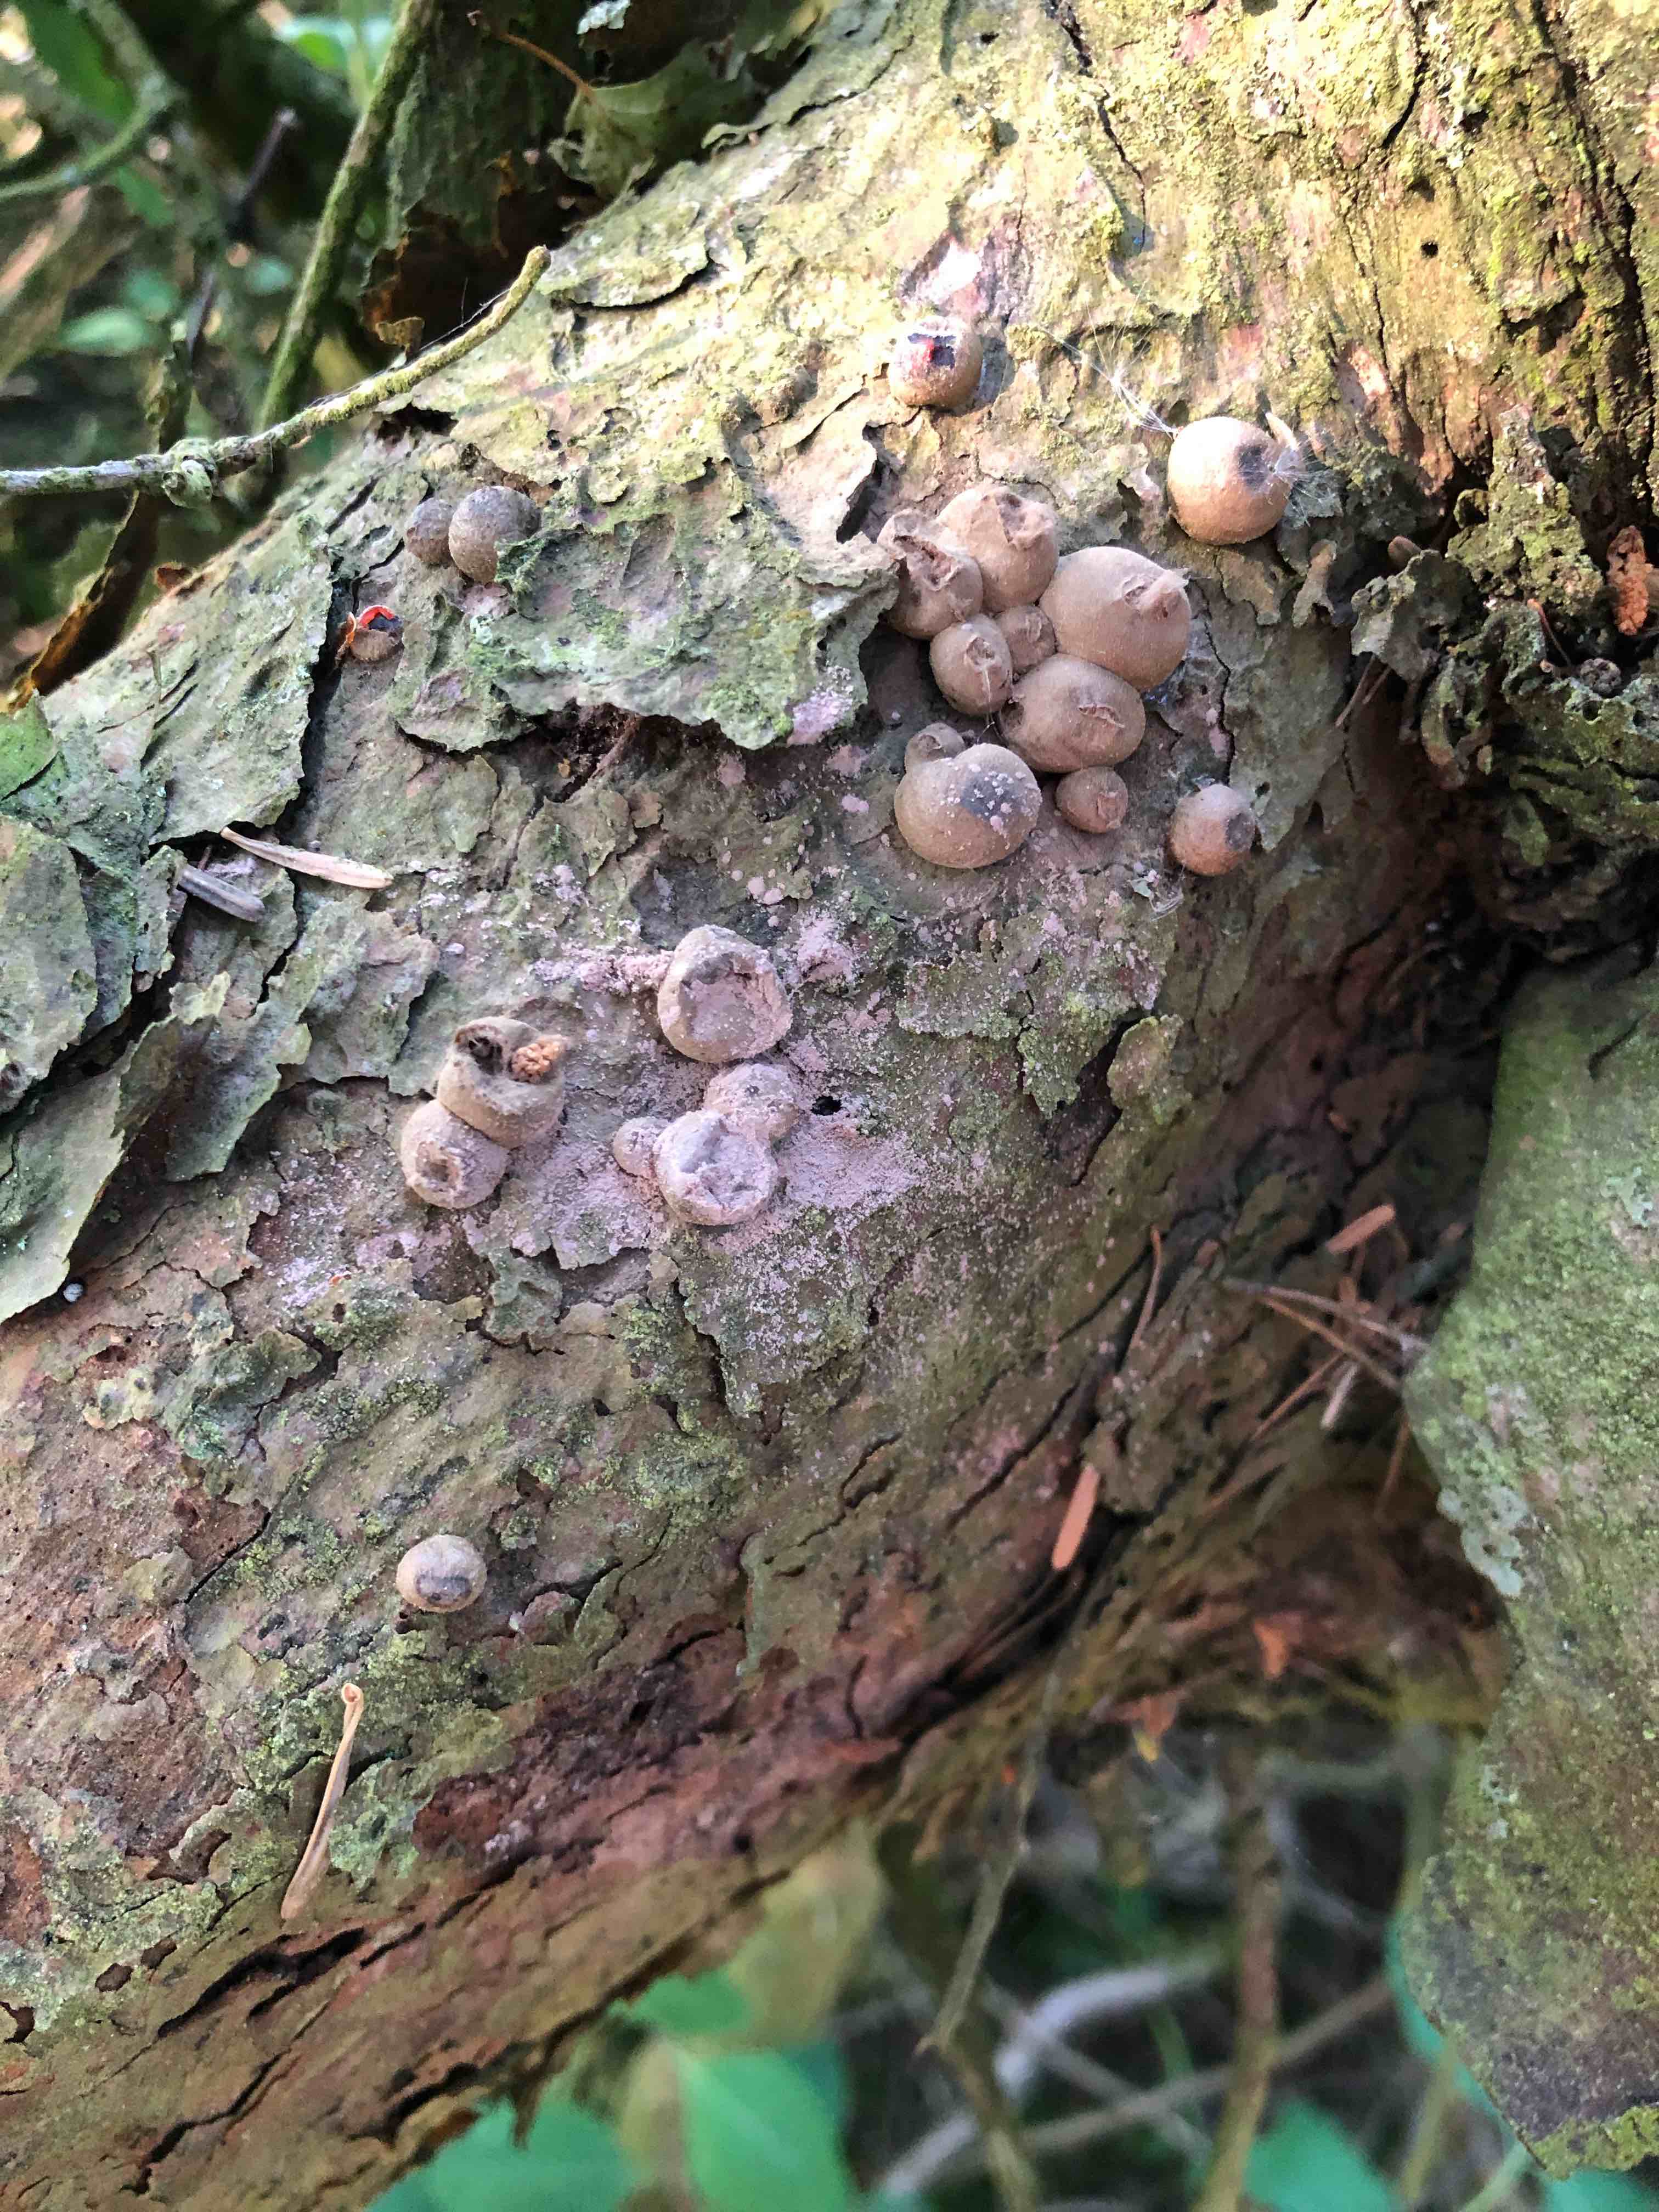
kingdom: Protozoa
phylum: Mycetozoa
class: Myxomycetes
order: Cribrariales
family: Tubiferaceae
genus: Lycogala
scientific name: Lycogala epidendrum
